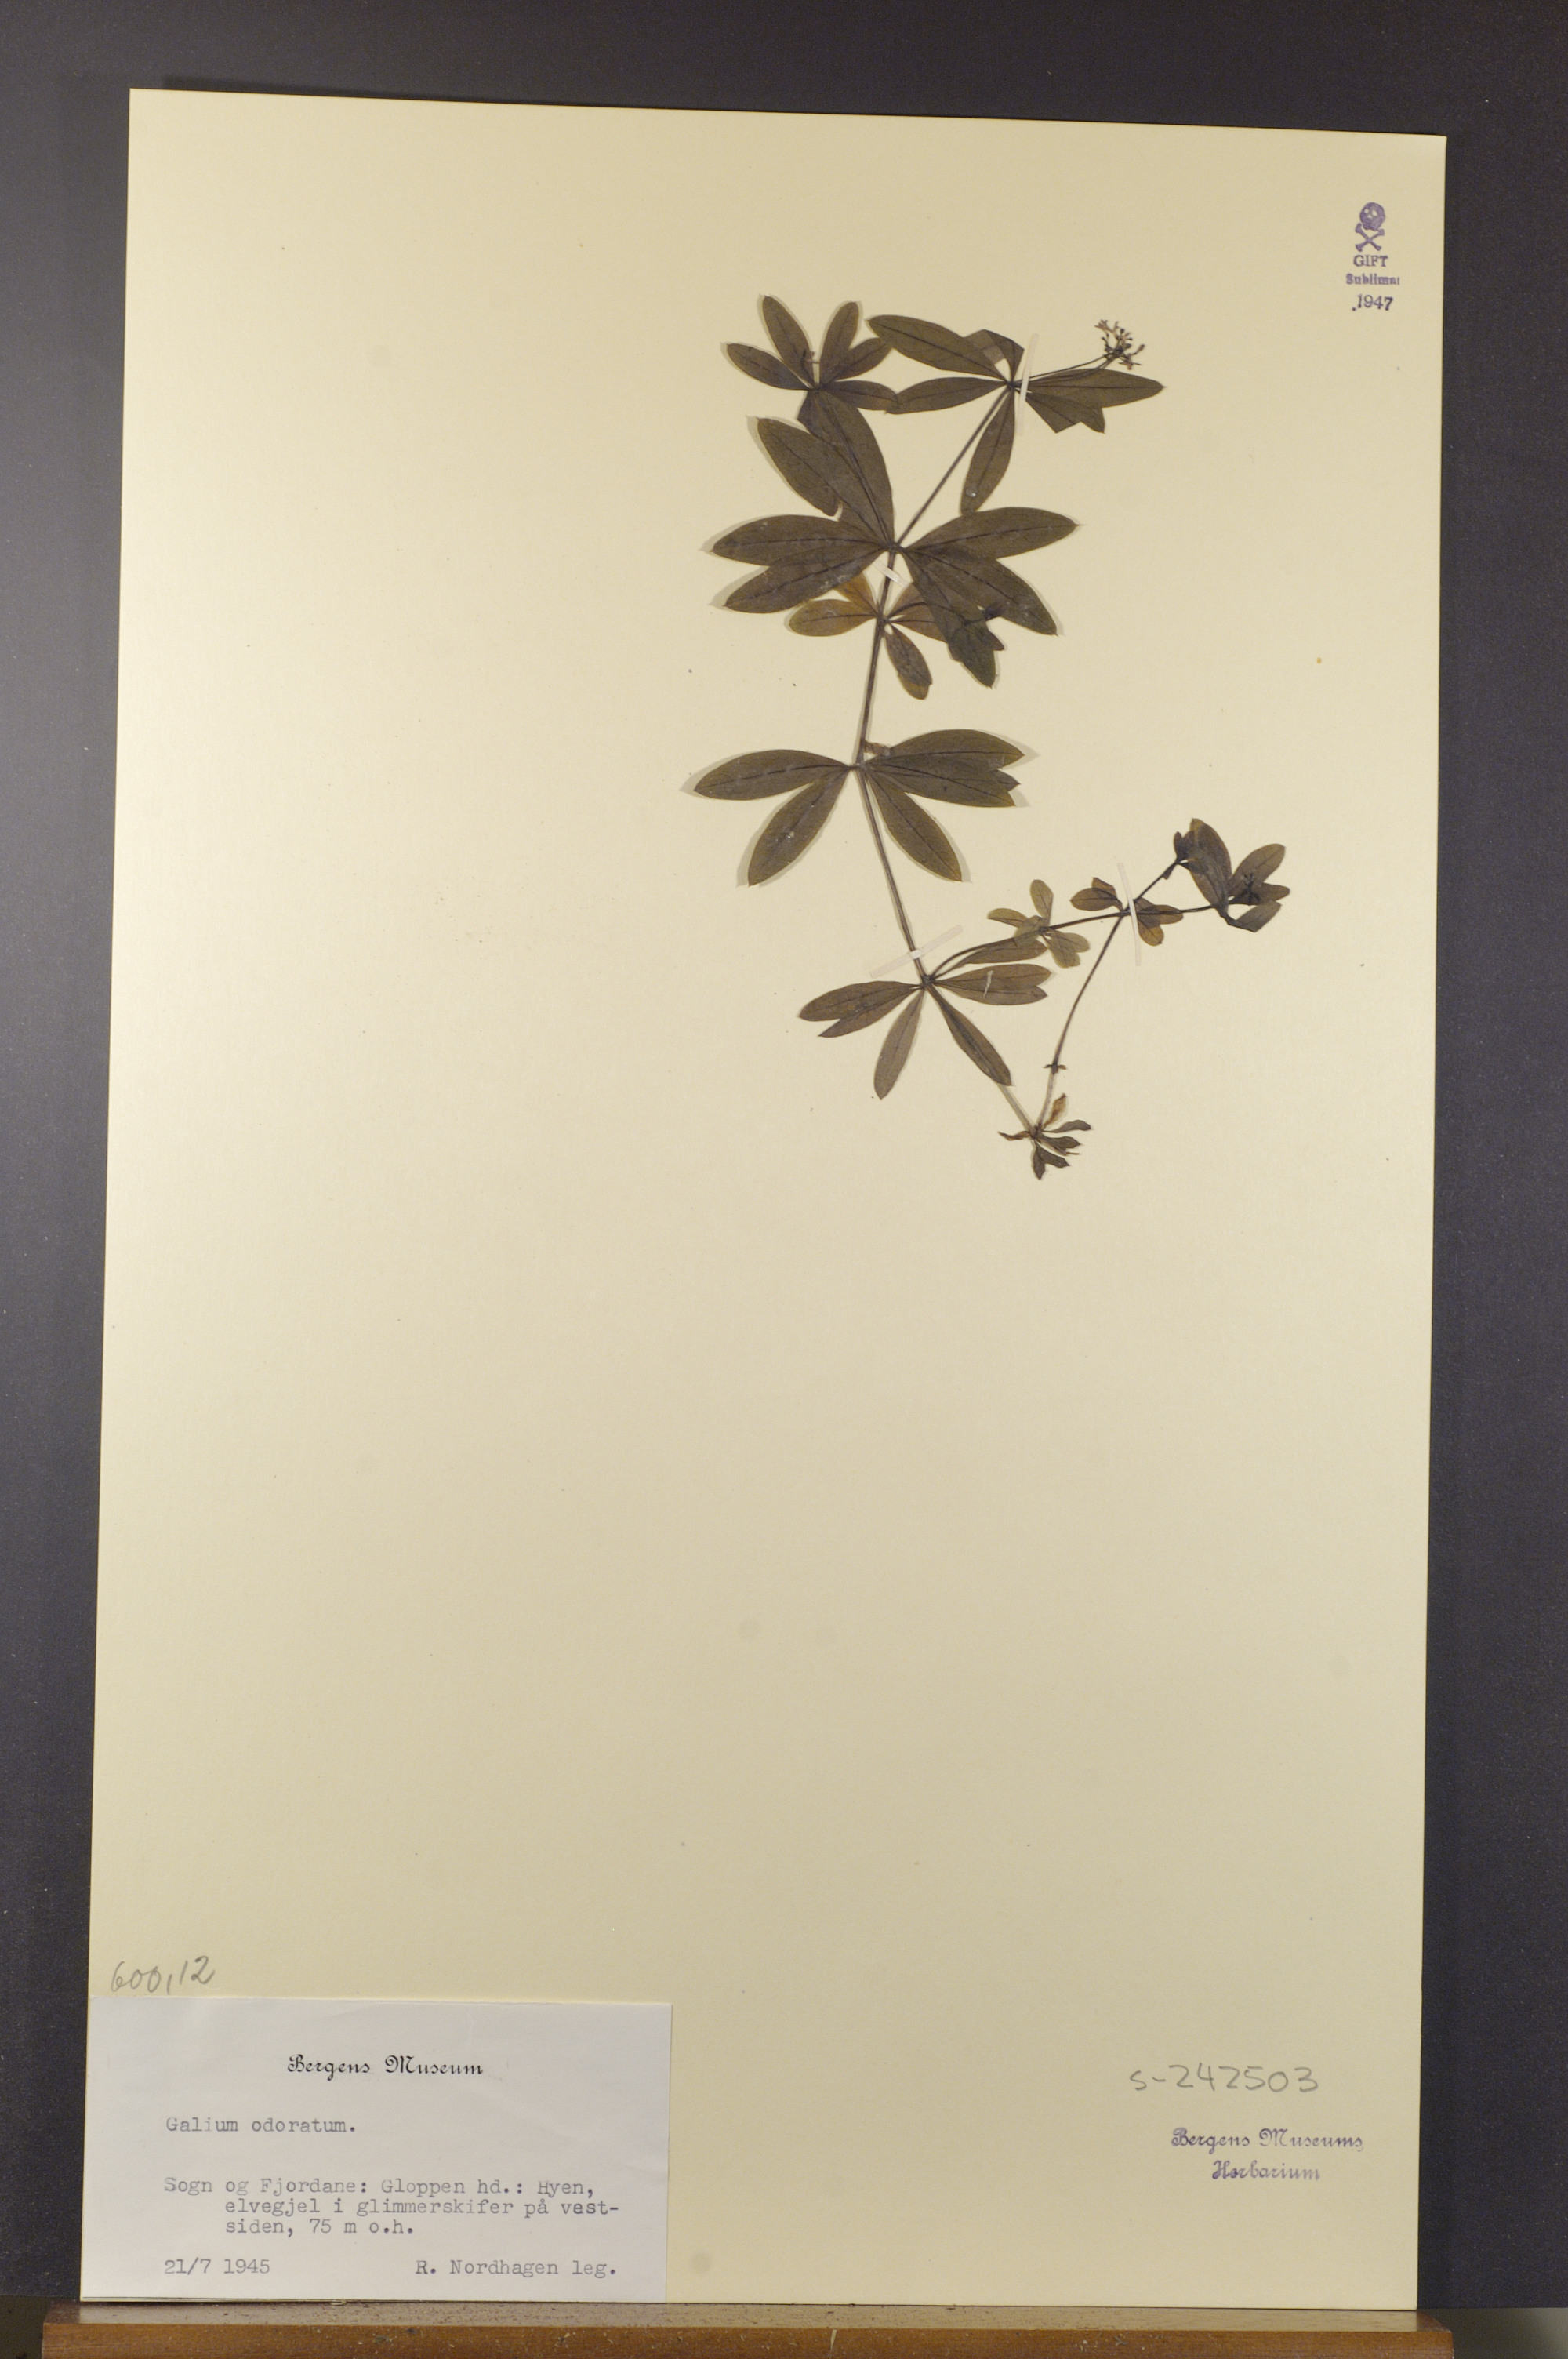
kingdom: Plantae
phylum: Tracheophyta
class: Magnoliopsida
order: Gentianales
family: Rubiaceae
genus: Galium
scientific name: Galium odoratum
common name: Sweet woodruff
